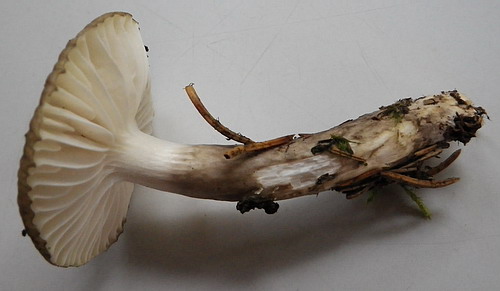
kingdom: Fungi
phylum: Basidiomycota
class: Agaricomycetes
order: Agaricales
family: Hygrophoraceae
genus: Hygrophorus
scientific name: Hygrophorus olivaceoalbus
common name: hvidbrun sneglehat
